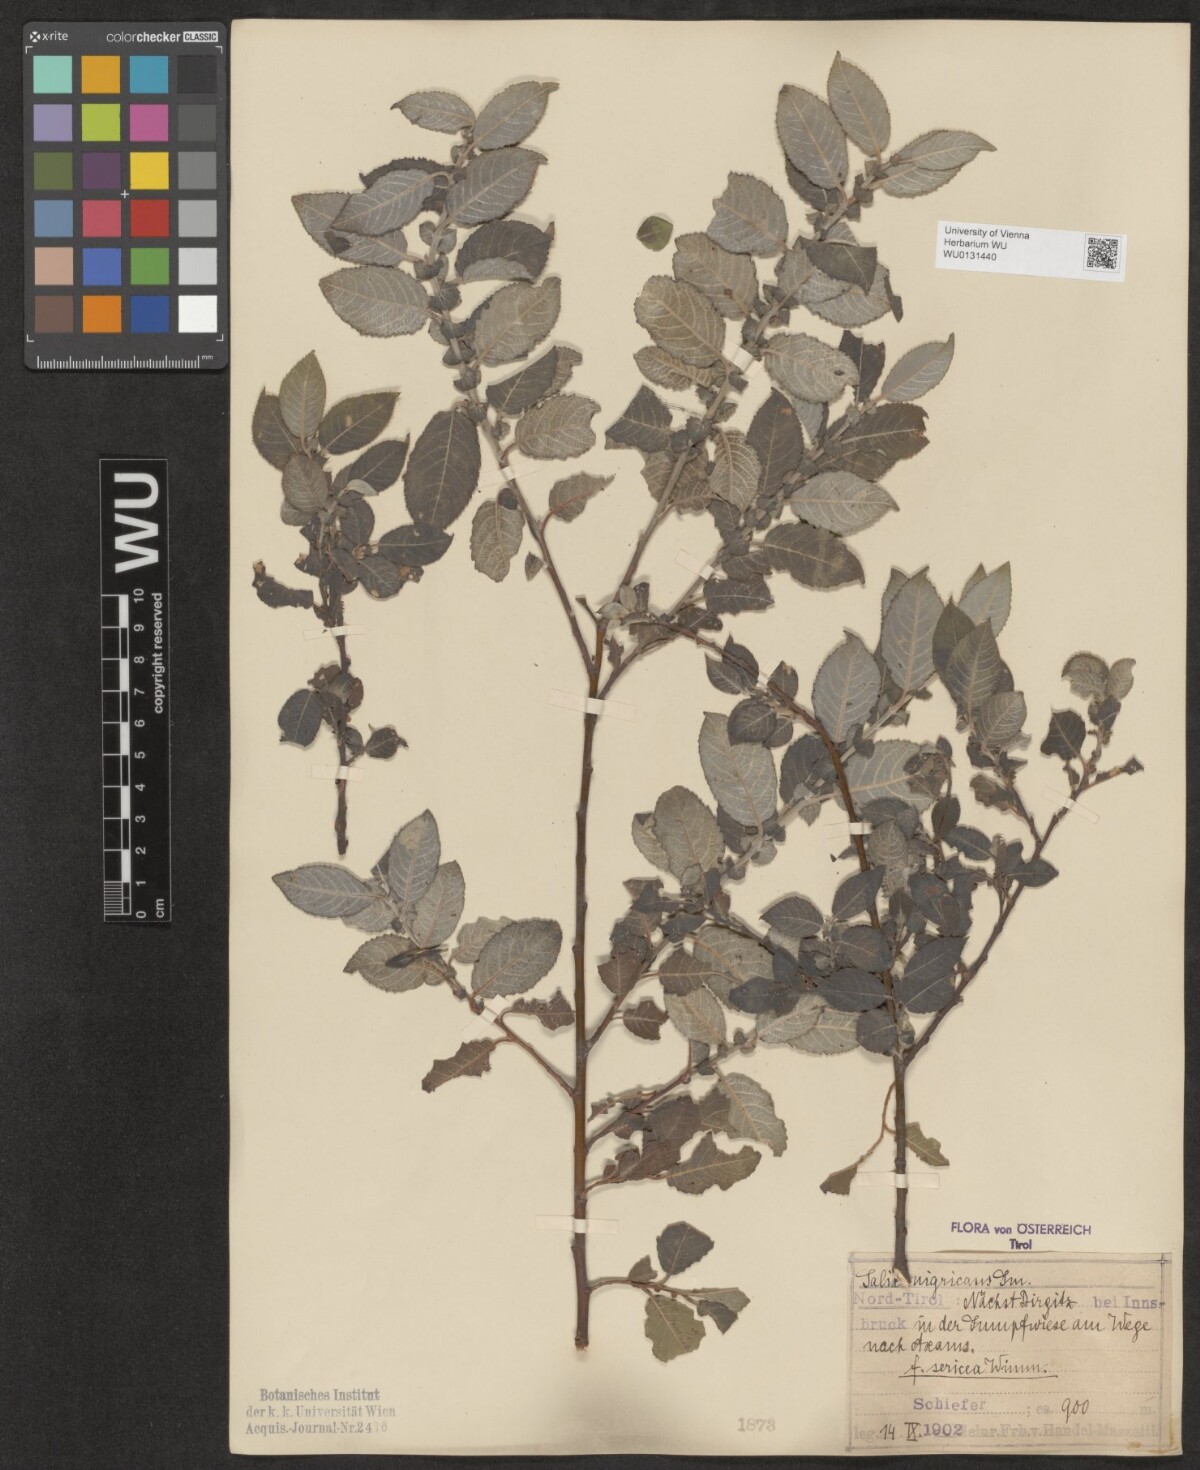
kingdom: Plantae
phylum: Tracheophyta
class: Magnoliopsida
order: Malpighiales
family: Salicaceae
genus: Salix
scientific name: Salix myrsinifolia
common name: Dark-leaved willow
